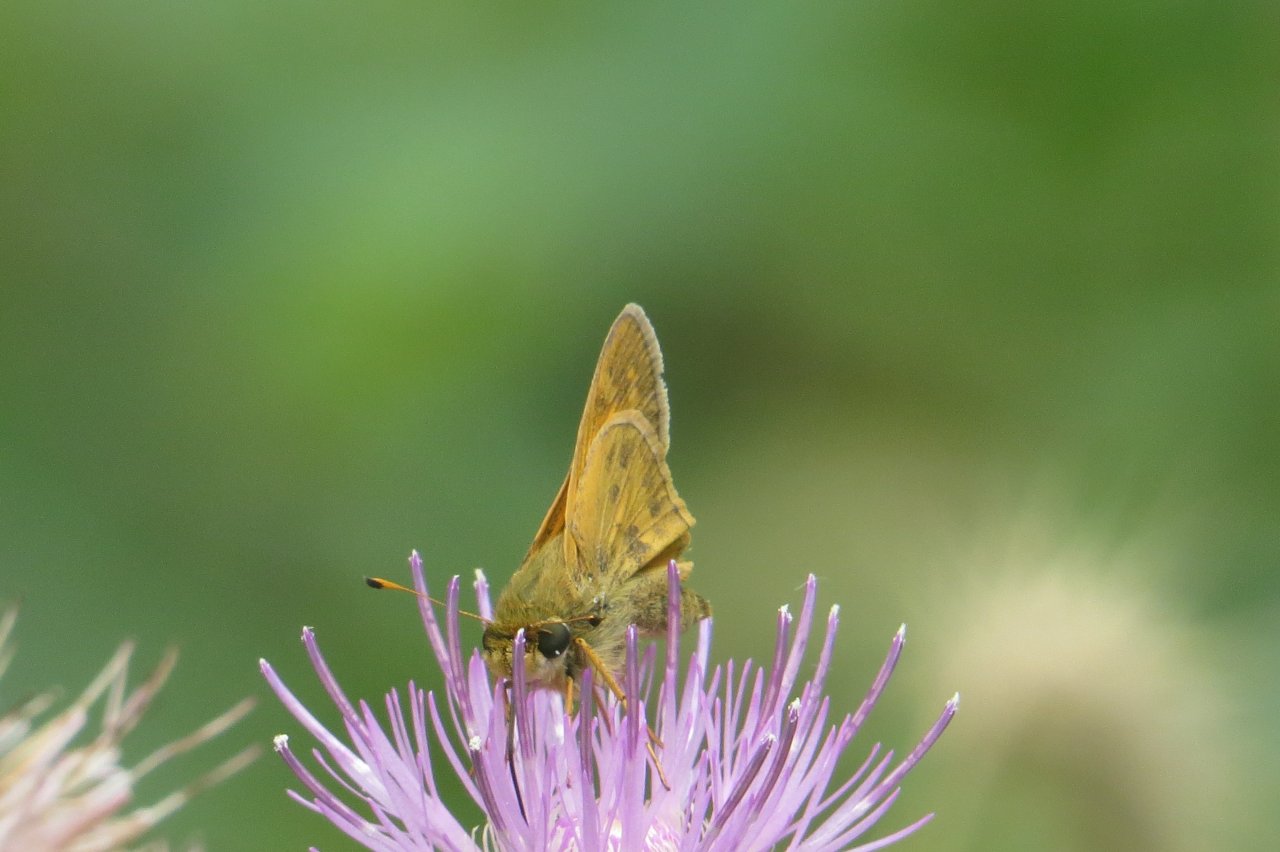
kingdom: Animalia
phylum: Arthropoda
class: Insecta
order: Lepidoptera
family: Hesperiidae
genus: Atalopedes
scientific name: Atalopedes campestris
